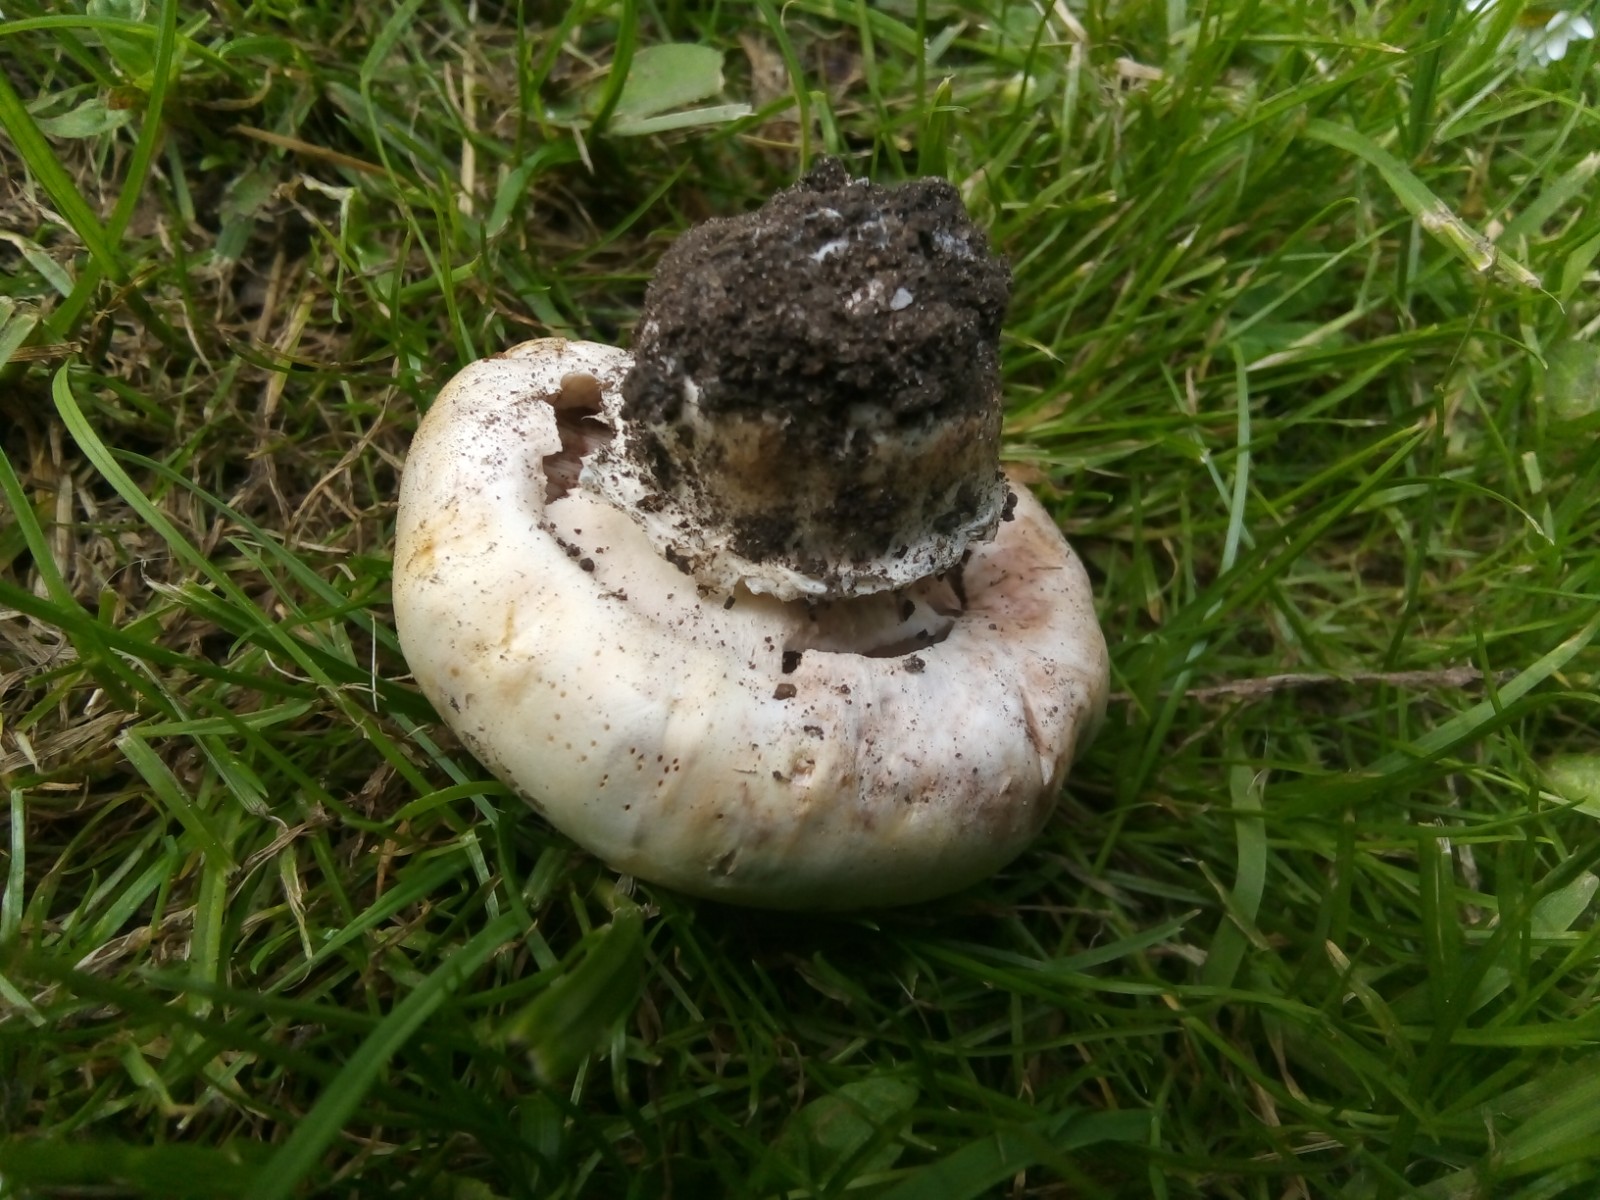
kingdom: Fungi
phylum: Basidiomycota
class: Agaricomycetes
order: Agaricales
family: Agaricaceae
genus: Agaricus
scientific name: Agaricus bitorquis
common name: vej-champignon
